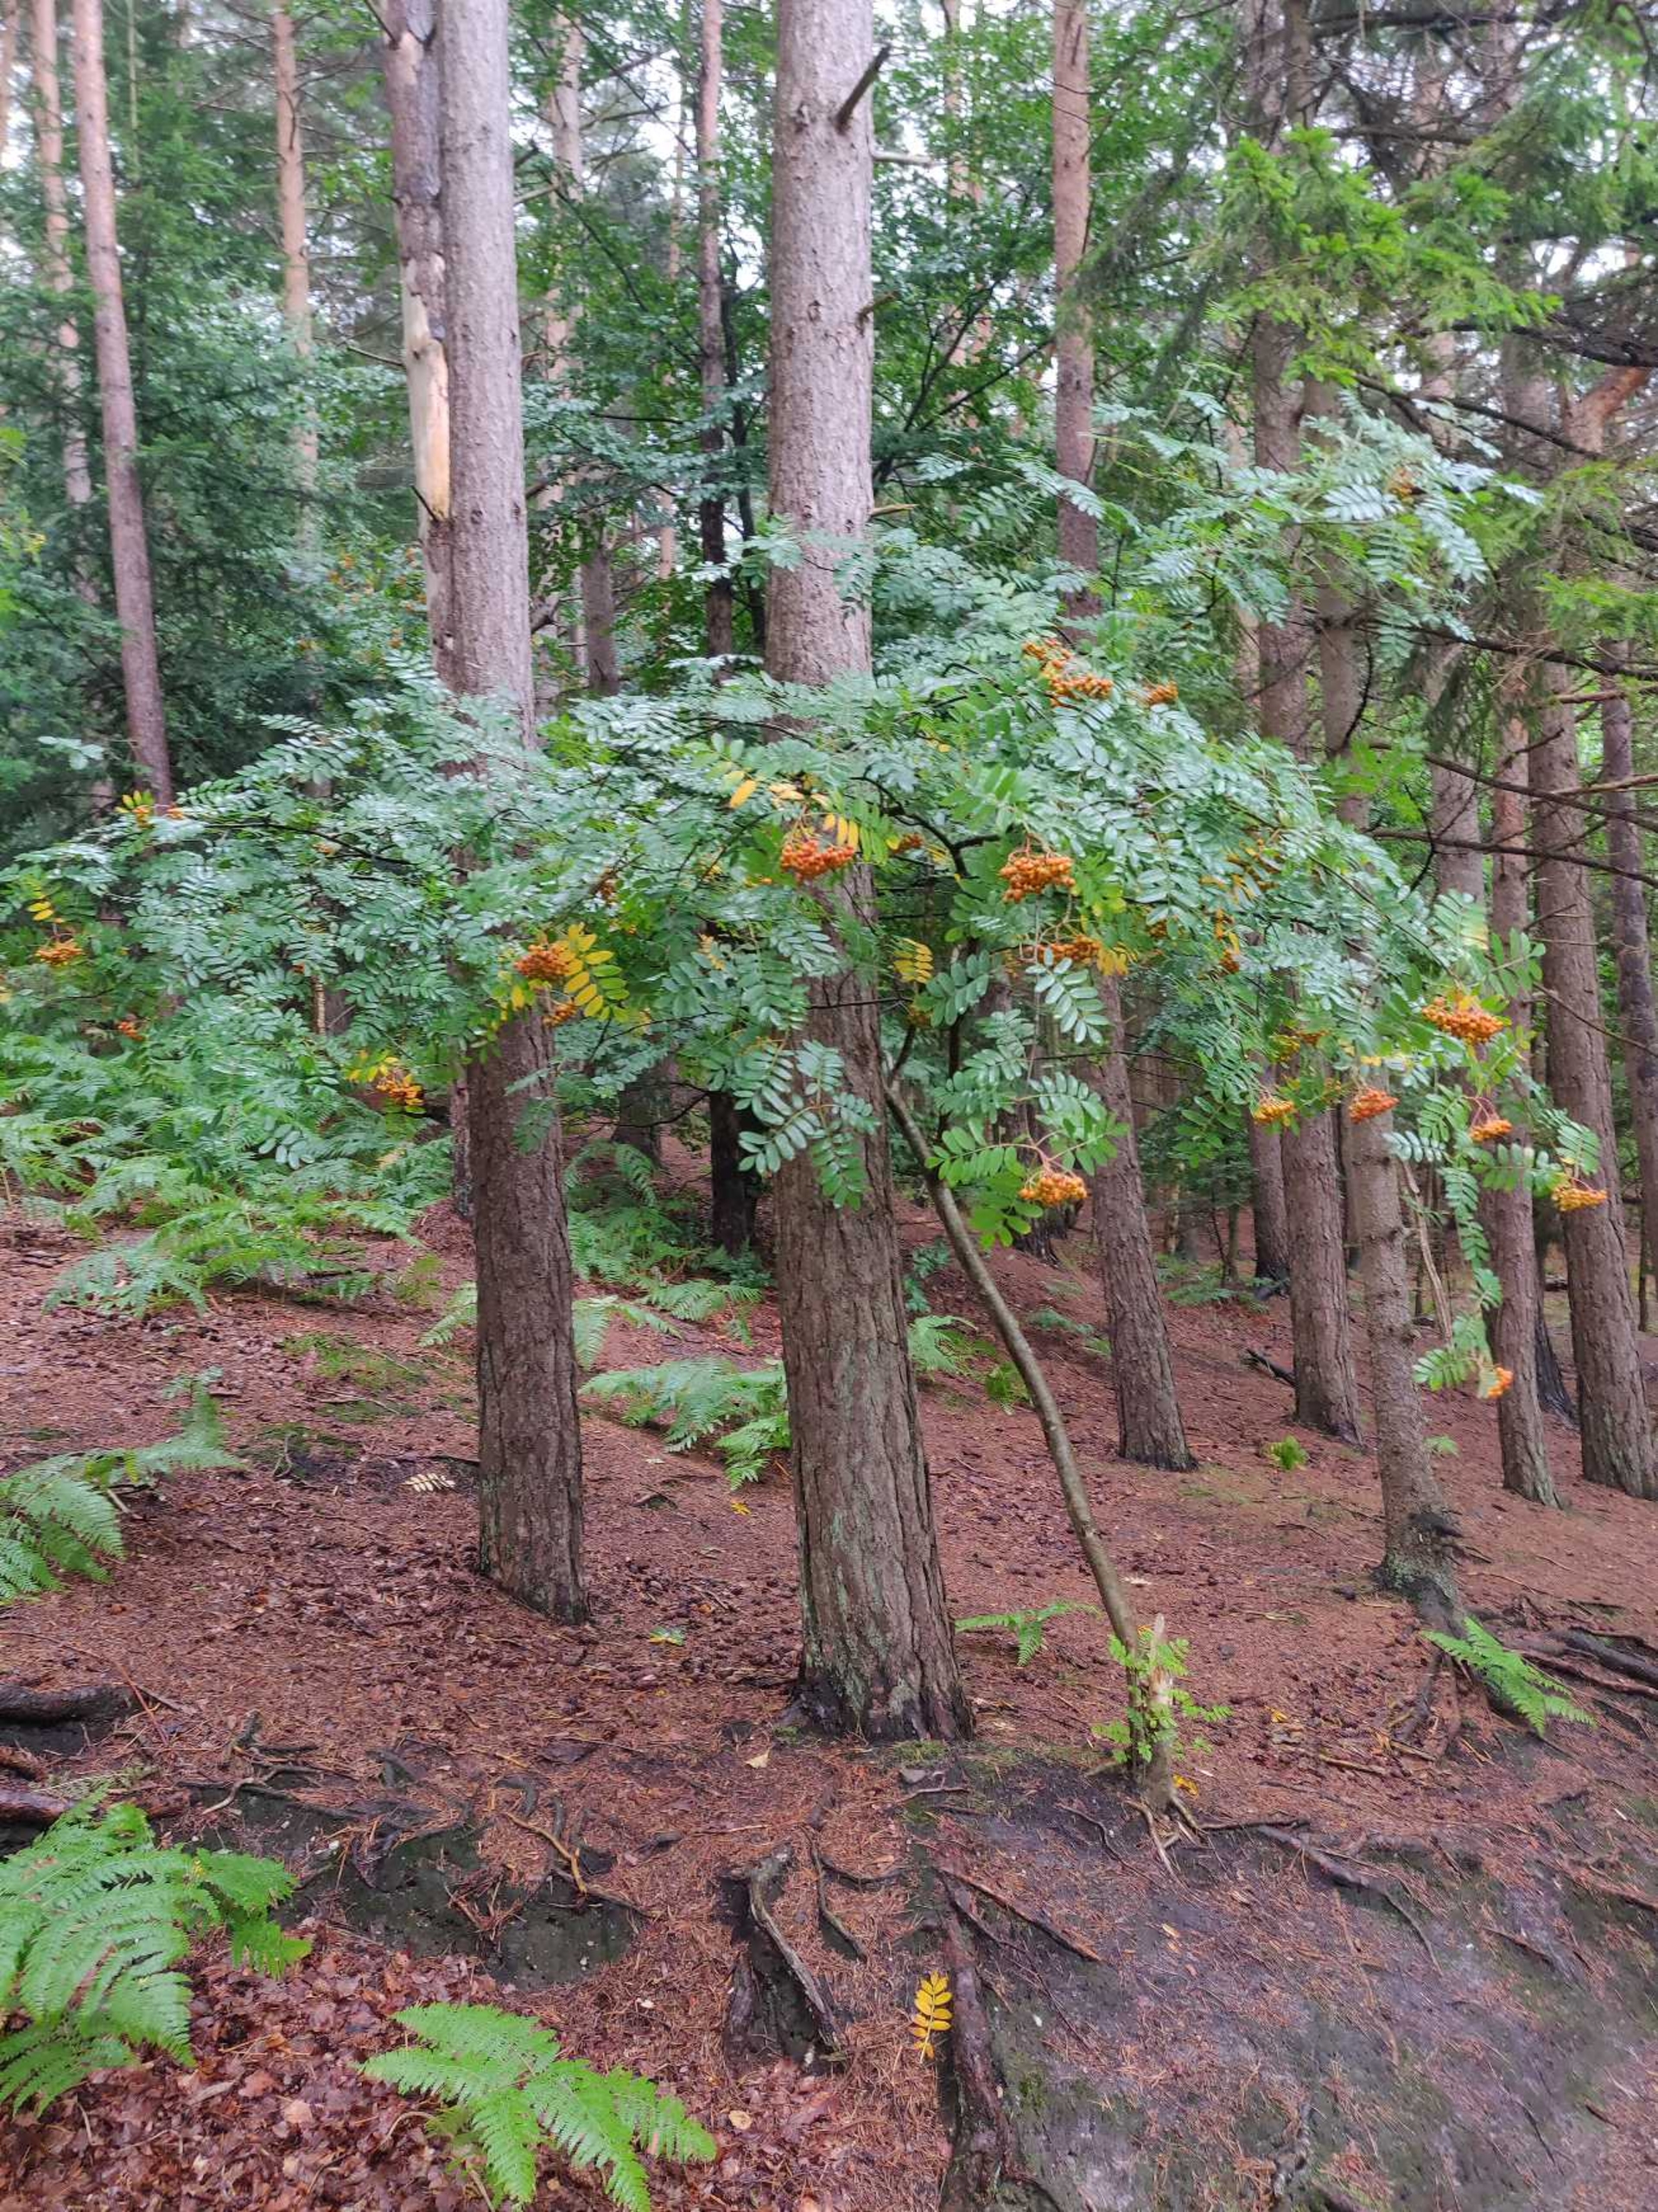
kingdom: Plantae
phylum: Tracheophyta
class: Magnoliopsida
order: Rosales
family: Rosaceae
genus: Sorbus
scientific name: Sorbus aucuparia
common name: Almindelig røn
